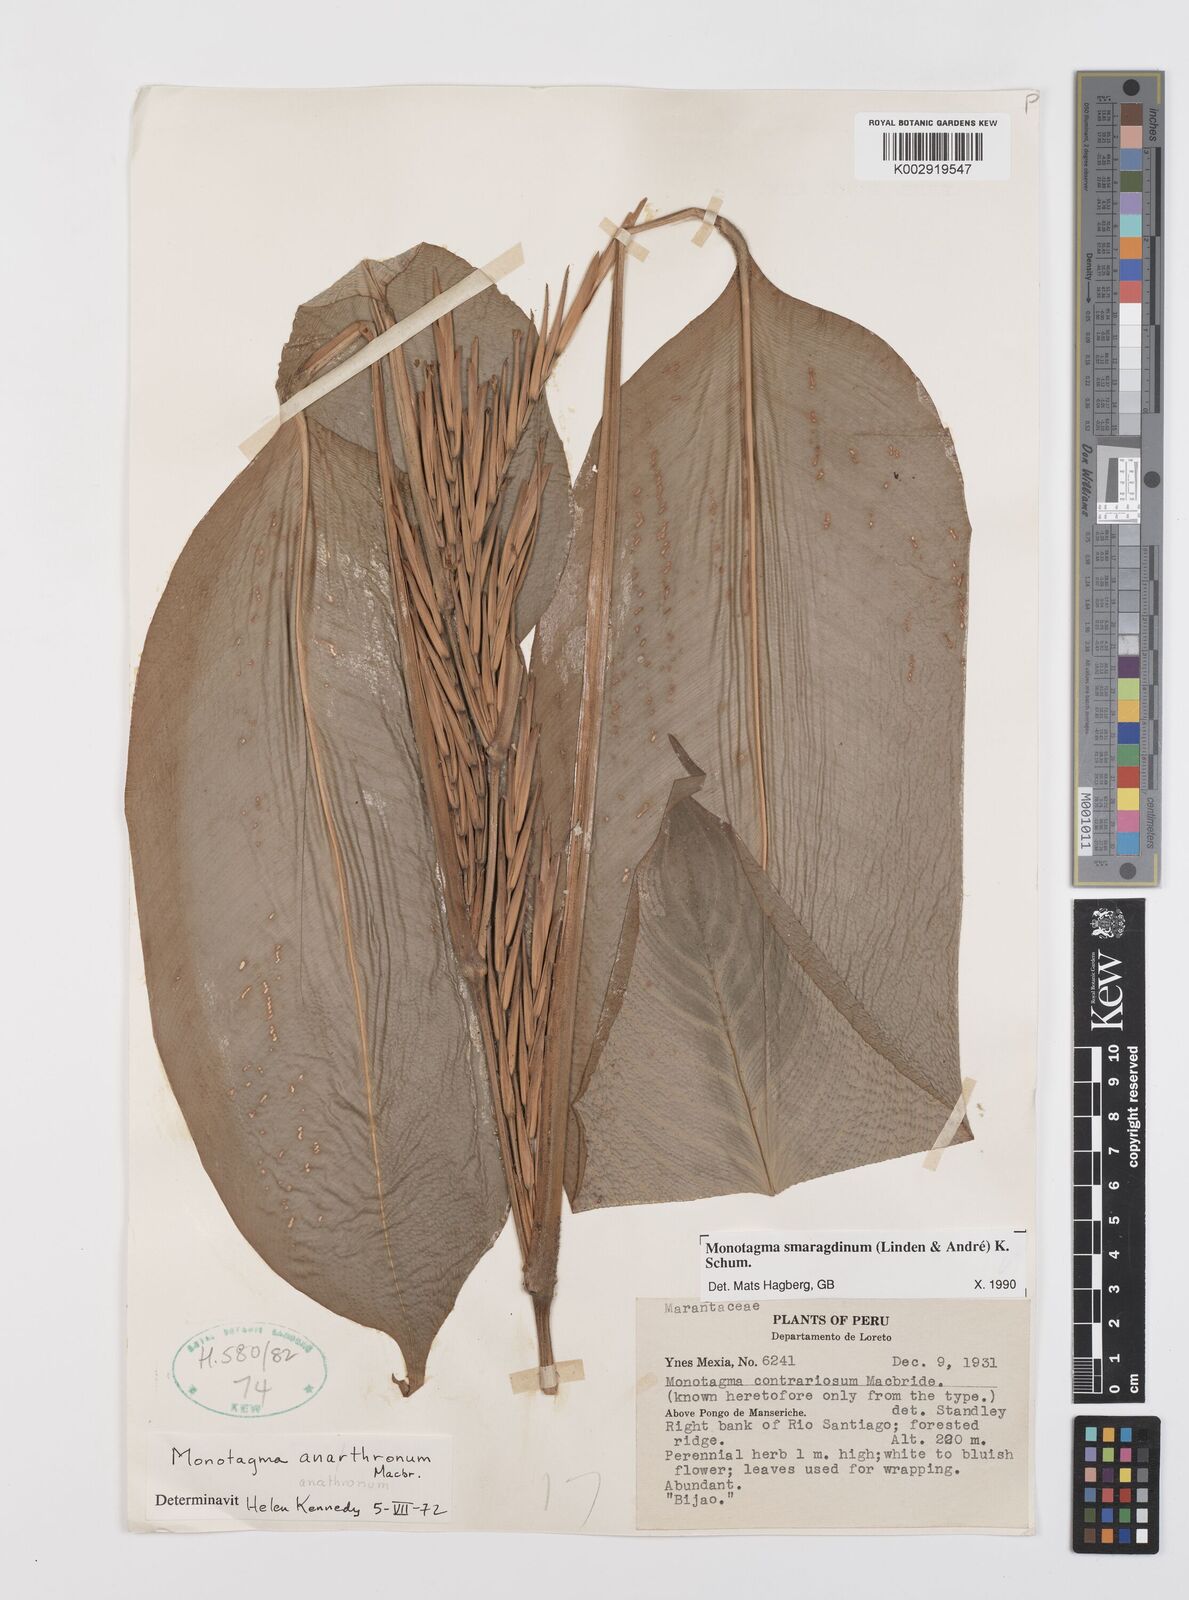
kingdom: Plantae
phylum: Tracheophyta
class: Liliopsida
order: Zingiberales
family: Marantaceae
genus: Monotagma
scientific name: Monotagma smaragdinum
